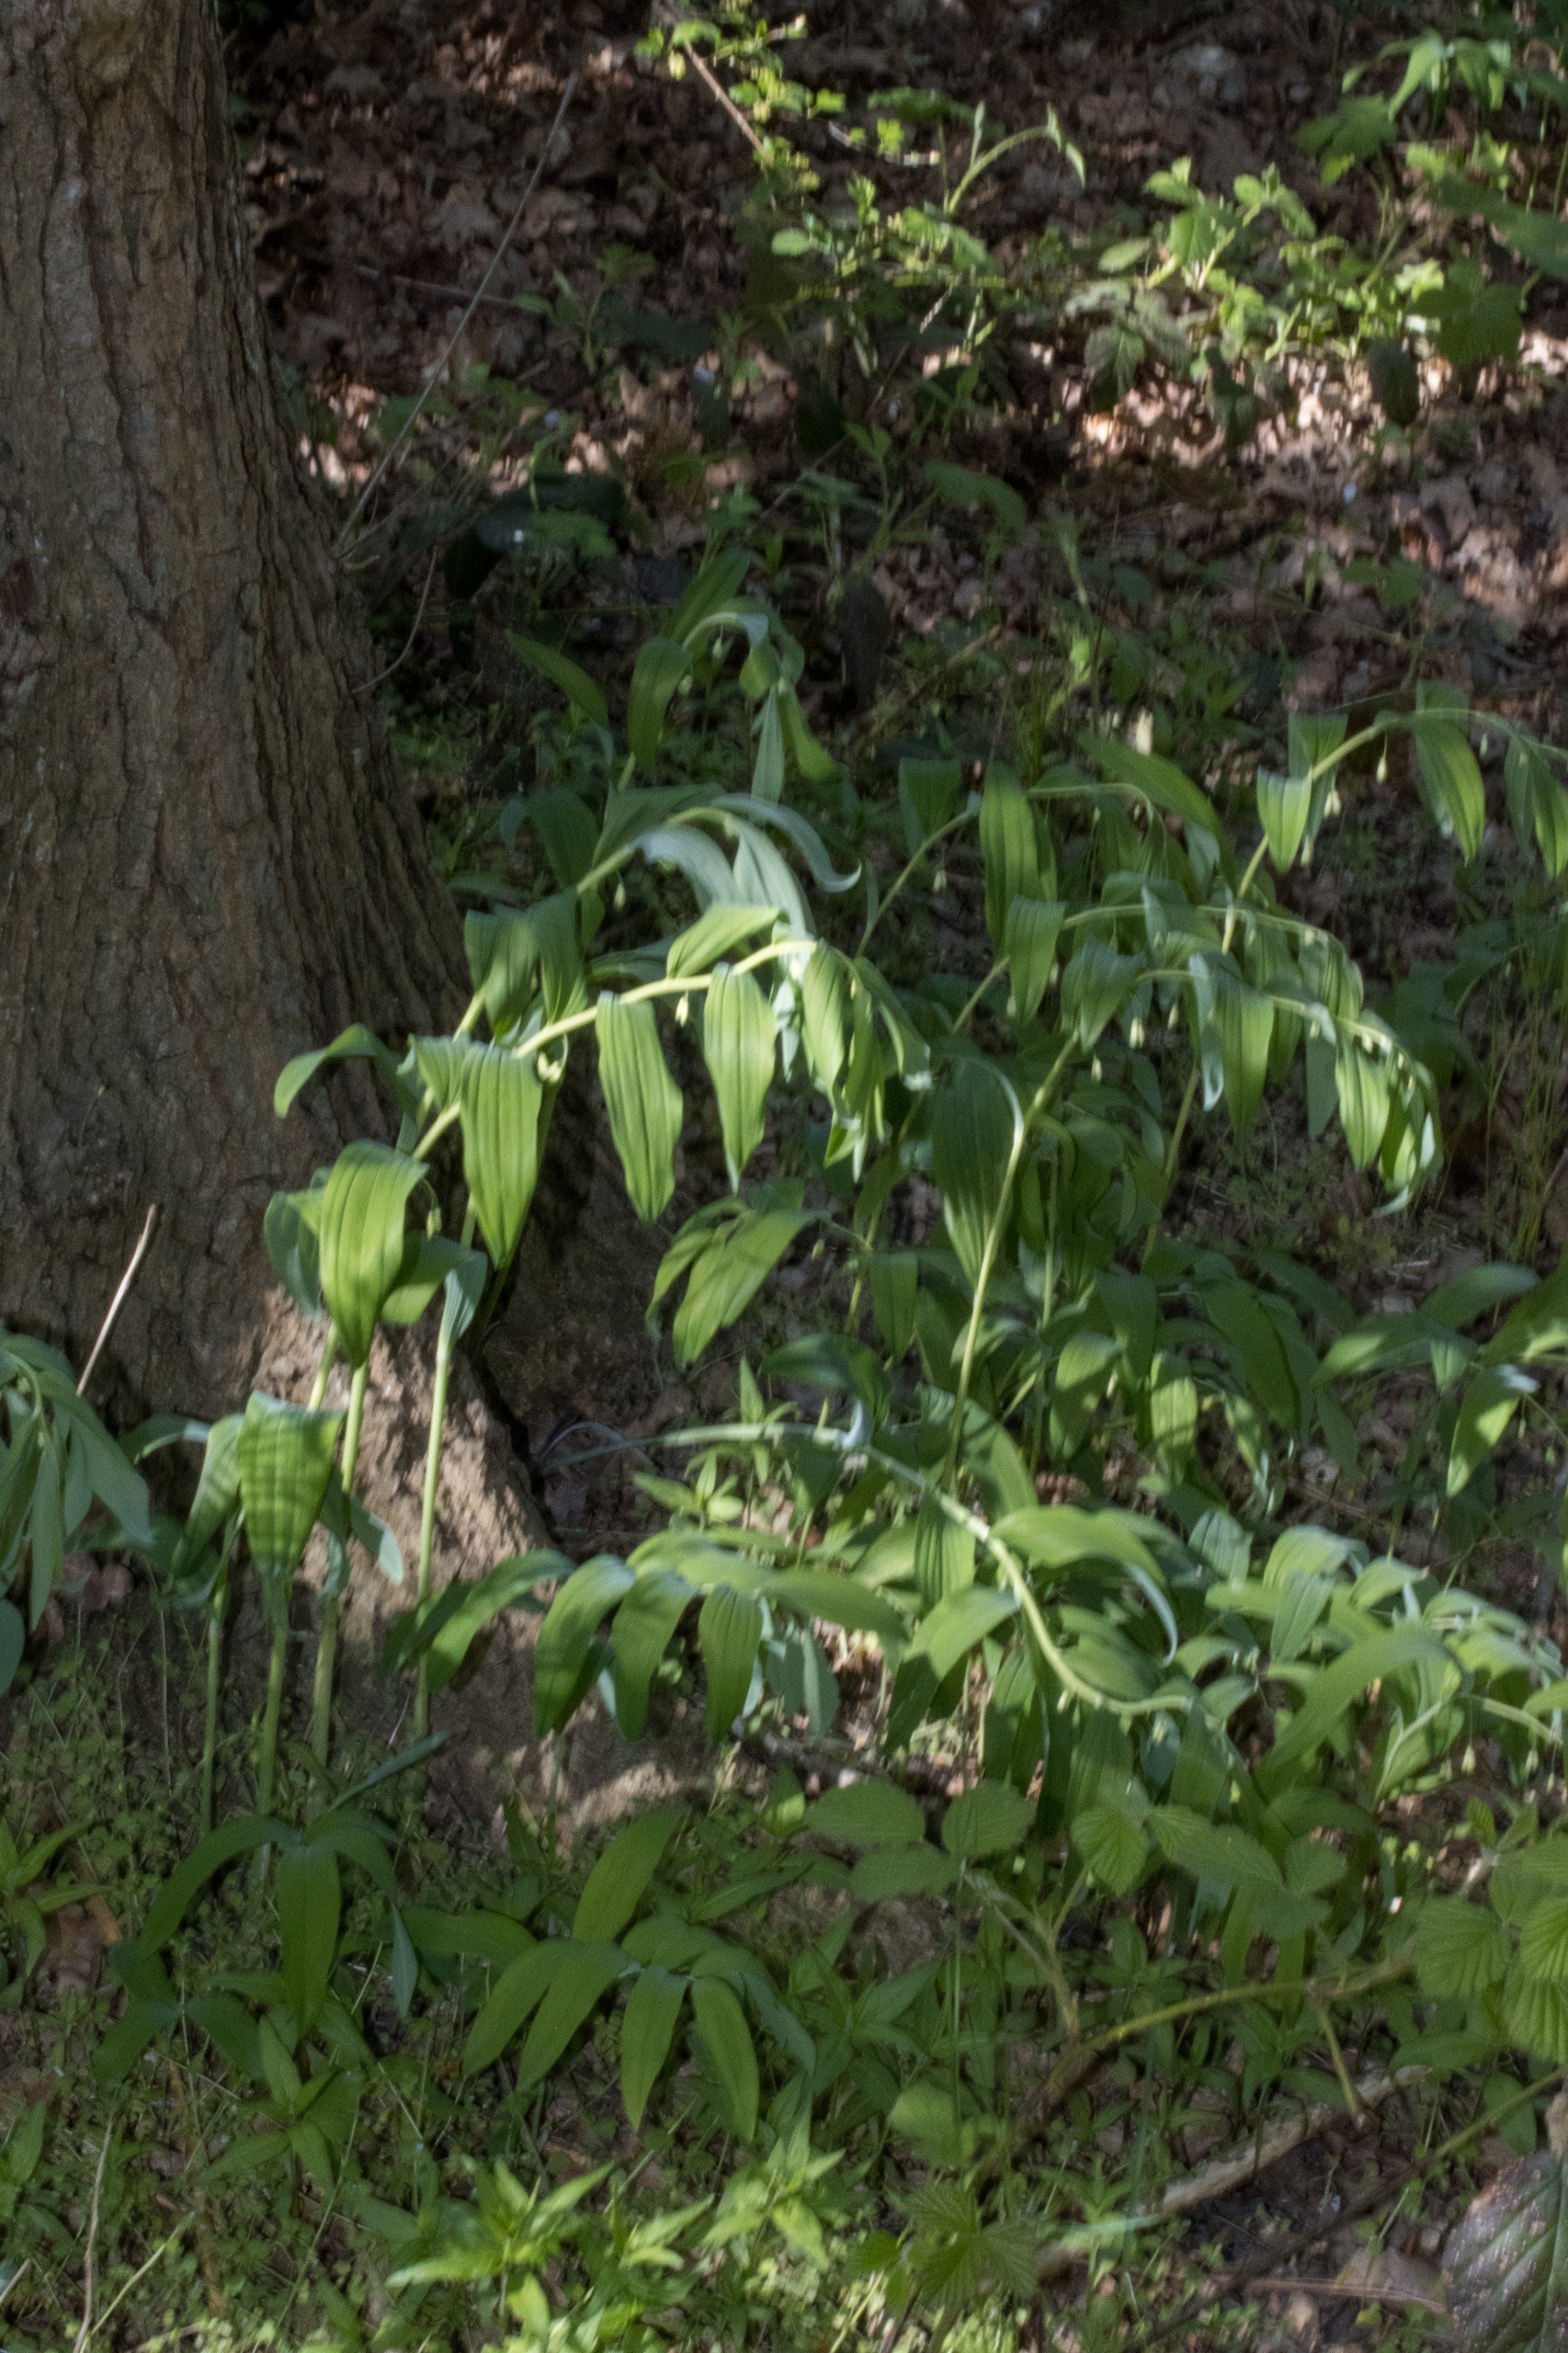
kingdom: Plantae
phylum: Tracheophyta
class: Liliopsida
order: Asparagales
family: Asparagaceae
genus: Polygonatum
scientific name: Polygonatum multiflorum
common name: Stor konval
